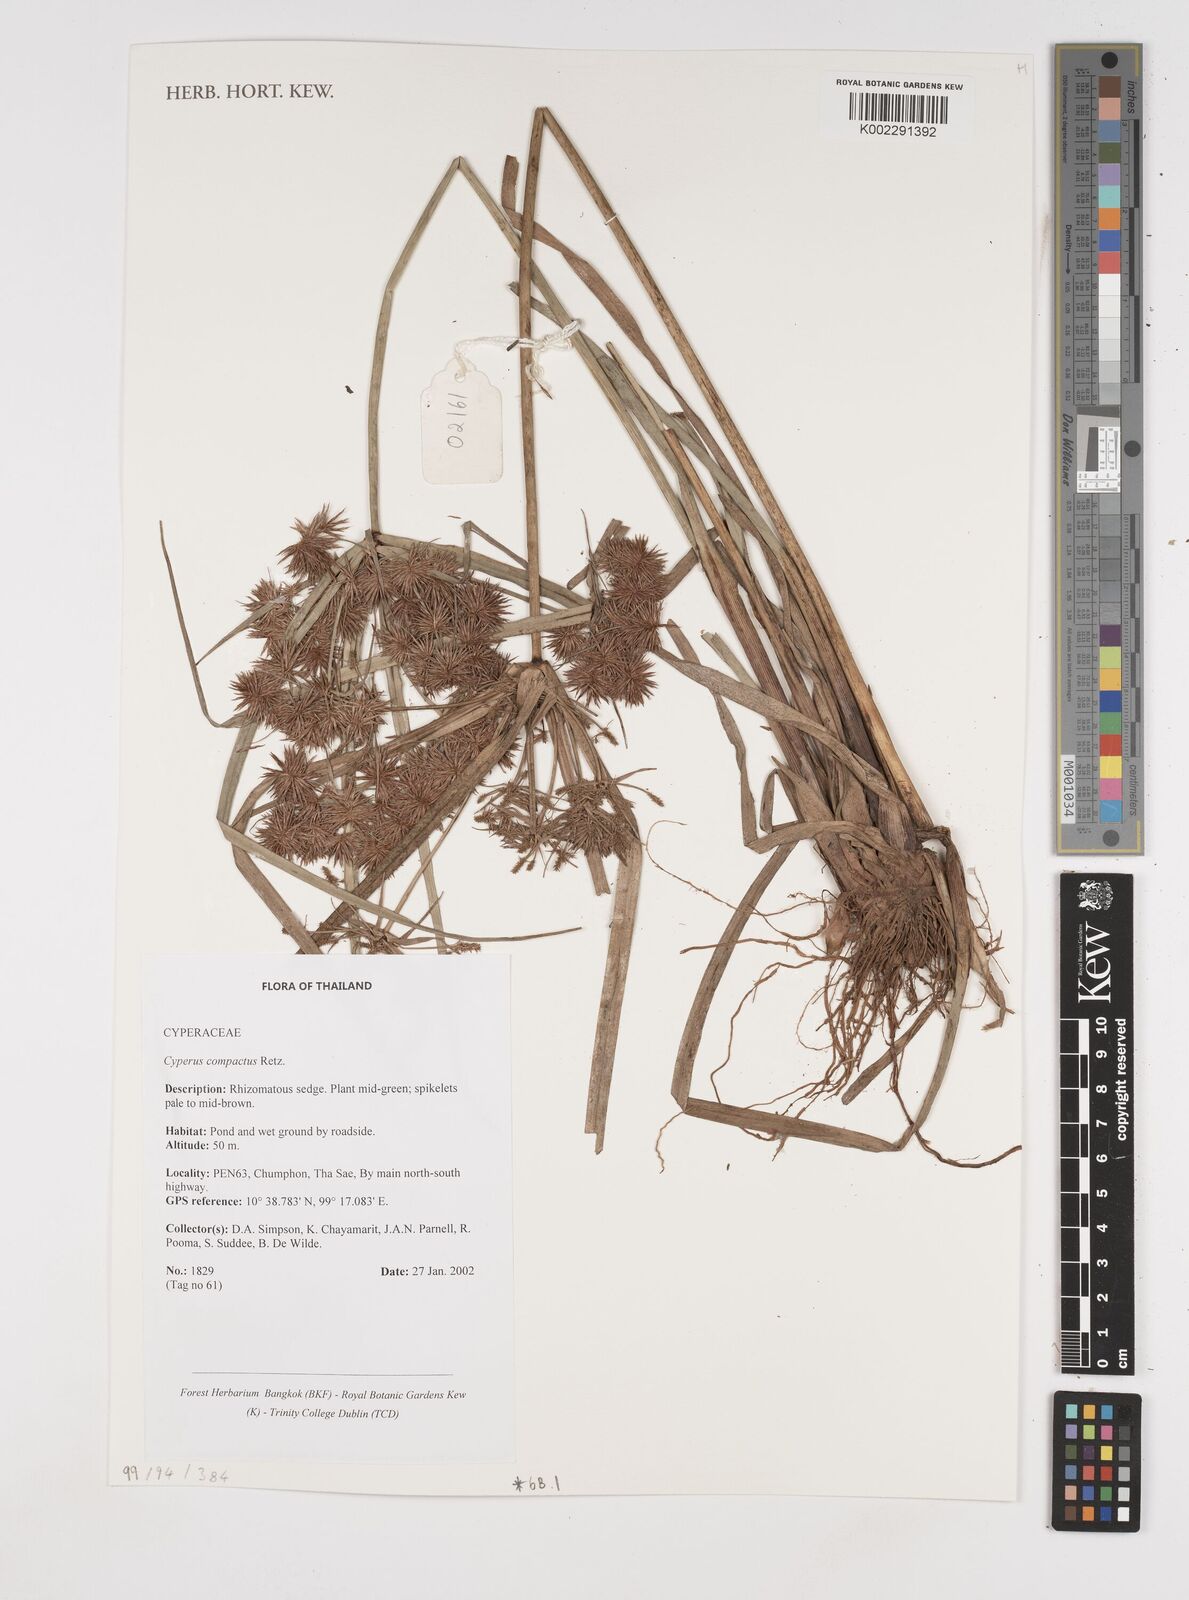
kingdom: Plantae
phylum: Tracheophyta
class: Liliopsida
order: Poales
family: Cyperaceae
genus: Cyperus
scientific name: Cyperus compactus
